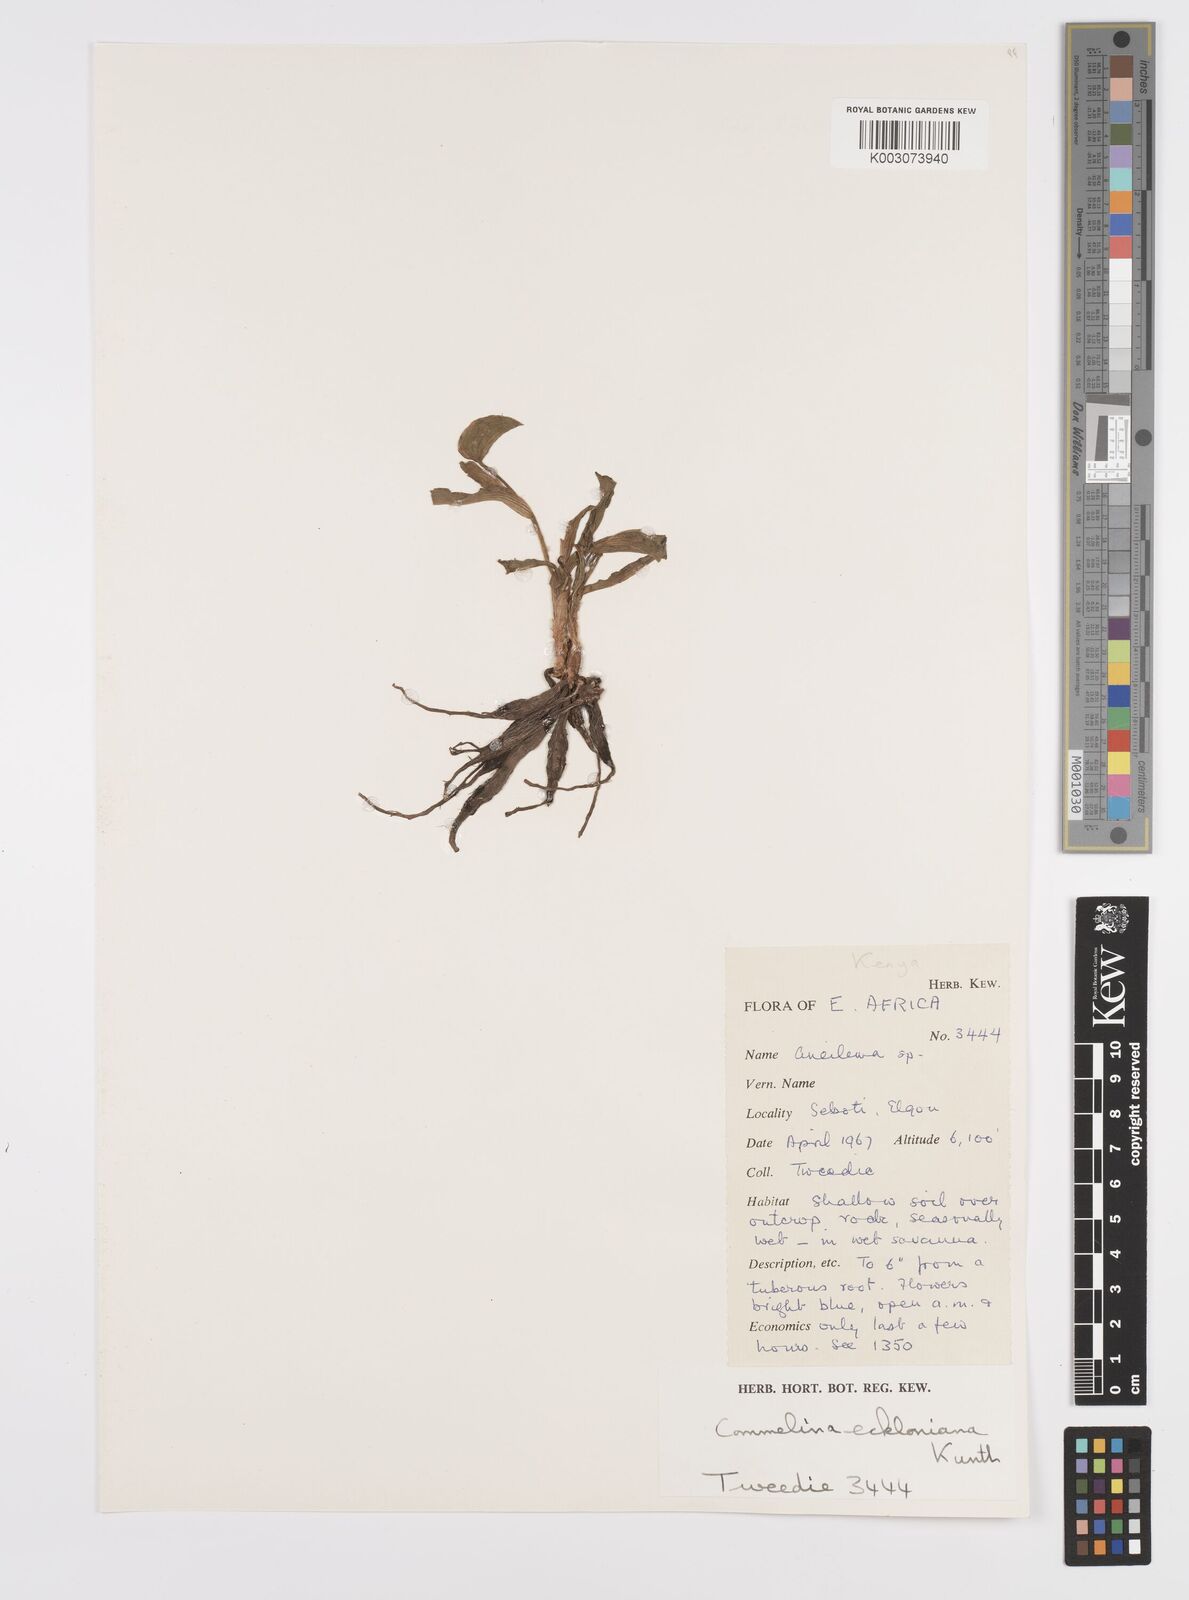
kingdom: Plantae
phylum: Tracheophyta
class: Liliopsida
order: Commelinales
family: Commelinaceae
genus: Commelina
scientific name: Commelina eckloniana
